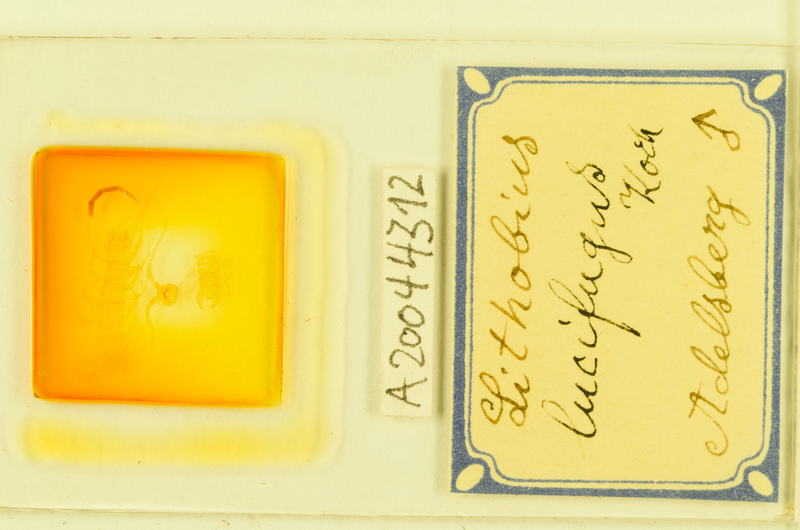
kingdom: Animalia
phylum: Arthropoda
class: Chilopoda
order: Lithobiomorpha
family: Lithobiidae
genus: Lithobius
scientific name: Lithobius lucifugus
